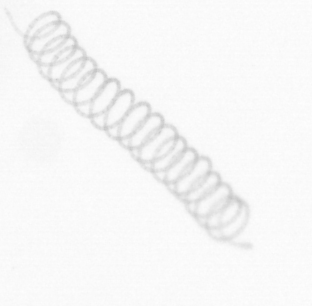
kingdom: Chromista
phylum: Ochrophyta
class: Bacillariophyceae
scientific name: Bacillariophyceae
